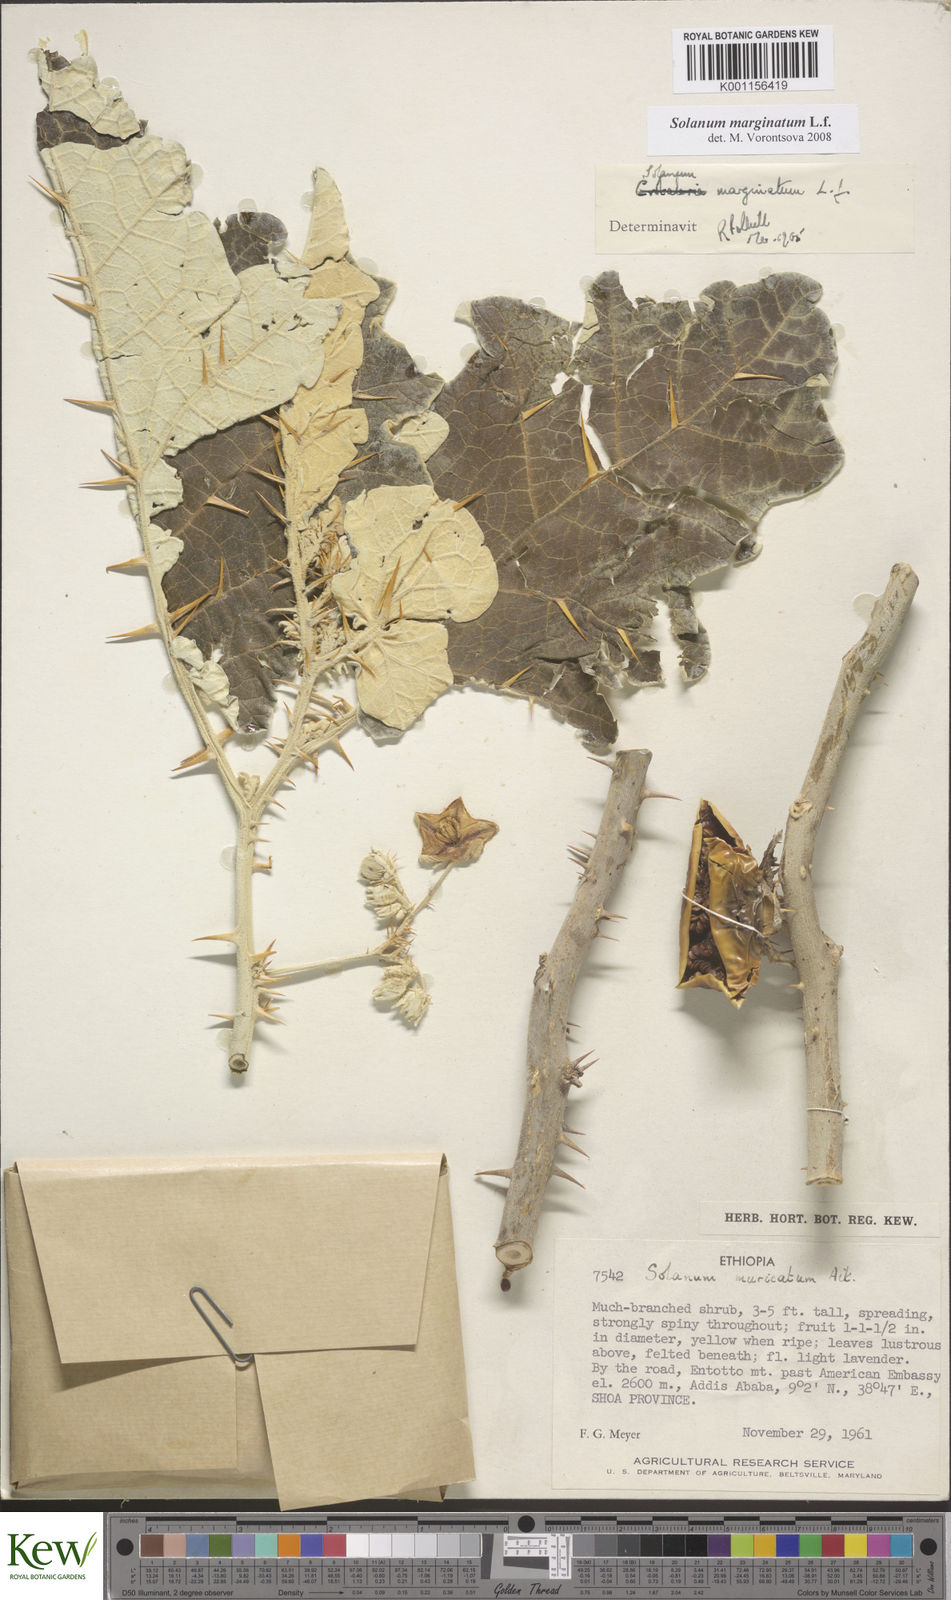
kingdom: Plantae
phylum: Tracheophyta
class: Magnoliopsida
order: Solanales
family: Solanaceae
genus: Solanum
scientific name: Solanum marginatum
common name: Purple african nightshade
